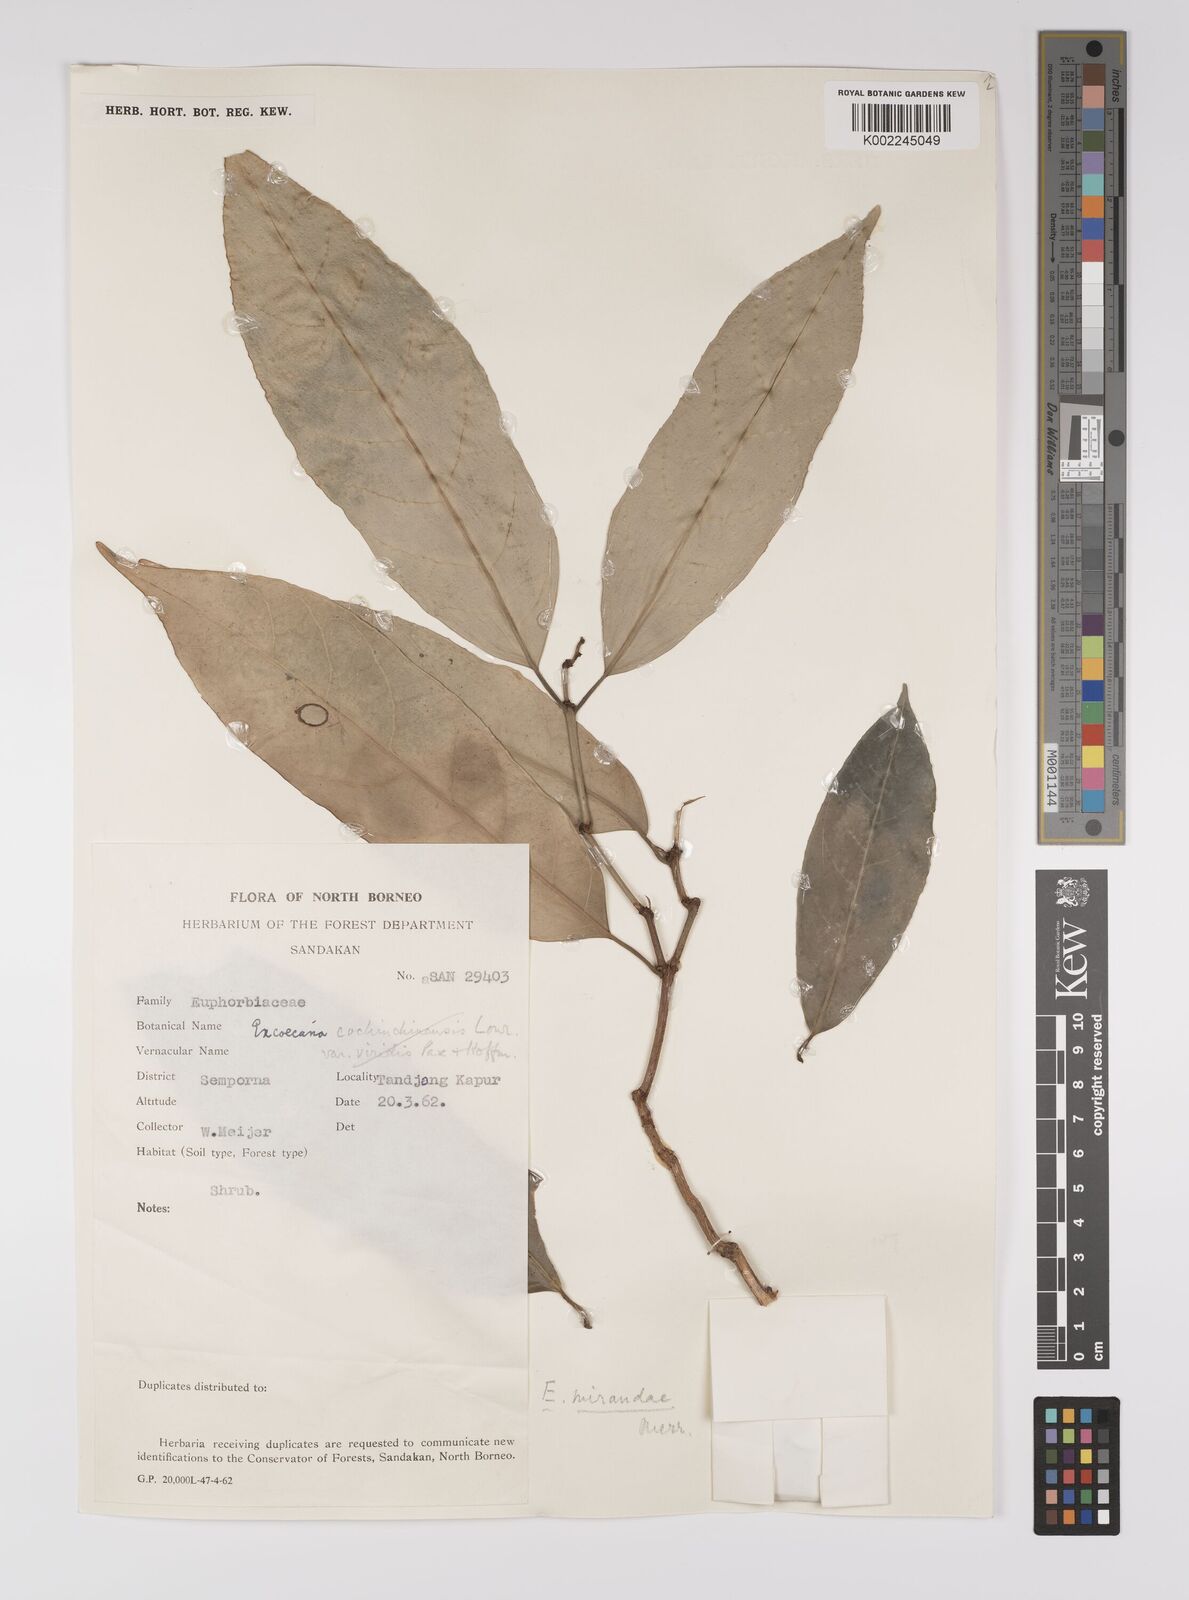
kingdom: Plantae
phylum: Tracheophyta
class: Magnoliopsida
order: Malpighiales
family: Euphorbiaceae
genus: Excoecaria
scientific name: Excoecaria borneensis
